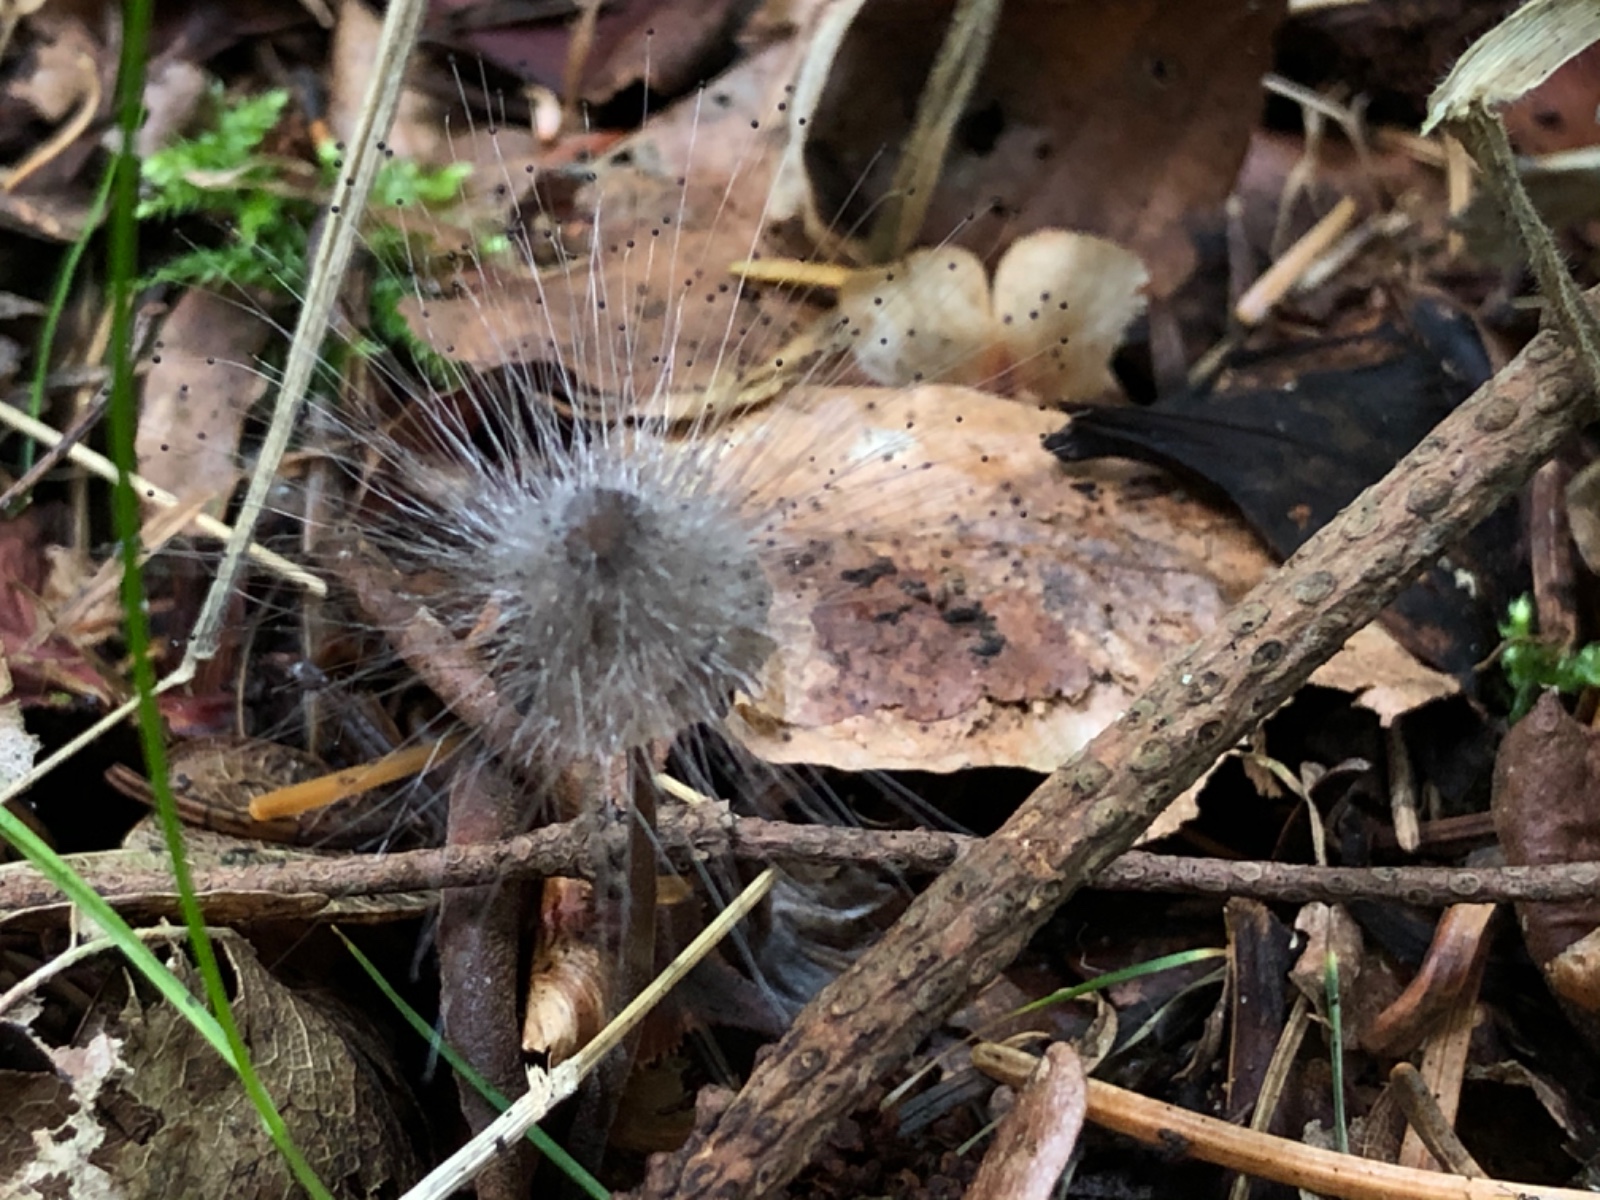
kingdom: Fungi
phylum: Mucoromycota
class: Mucoromycetes
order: Mucorales
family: Phycomycetaceae
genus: Spinellus
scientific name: Spinellus fusiger
